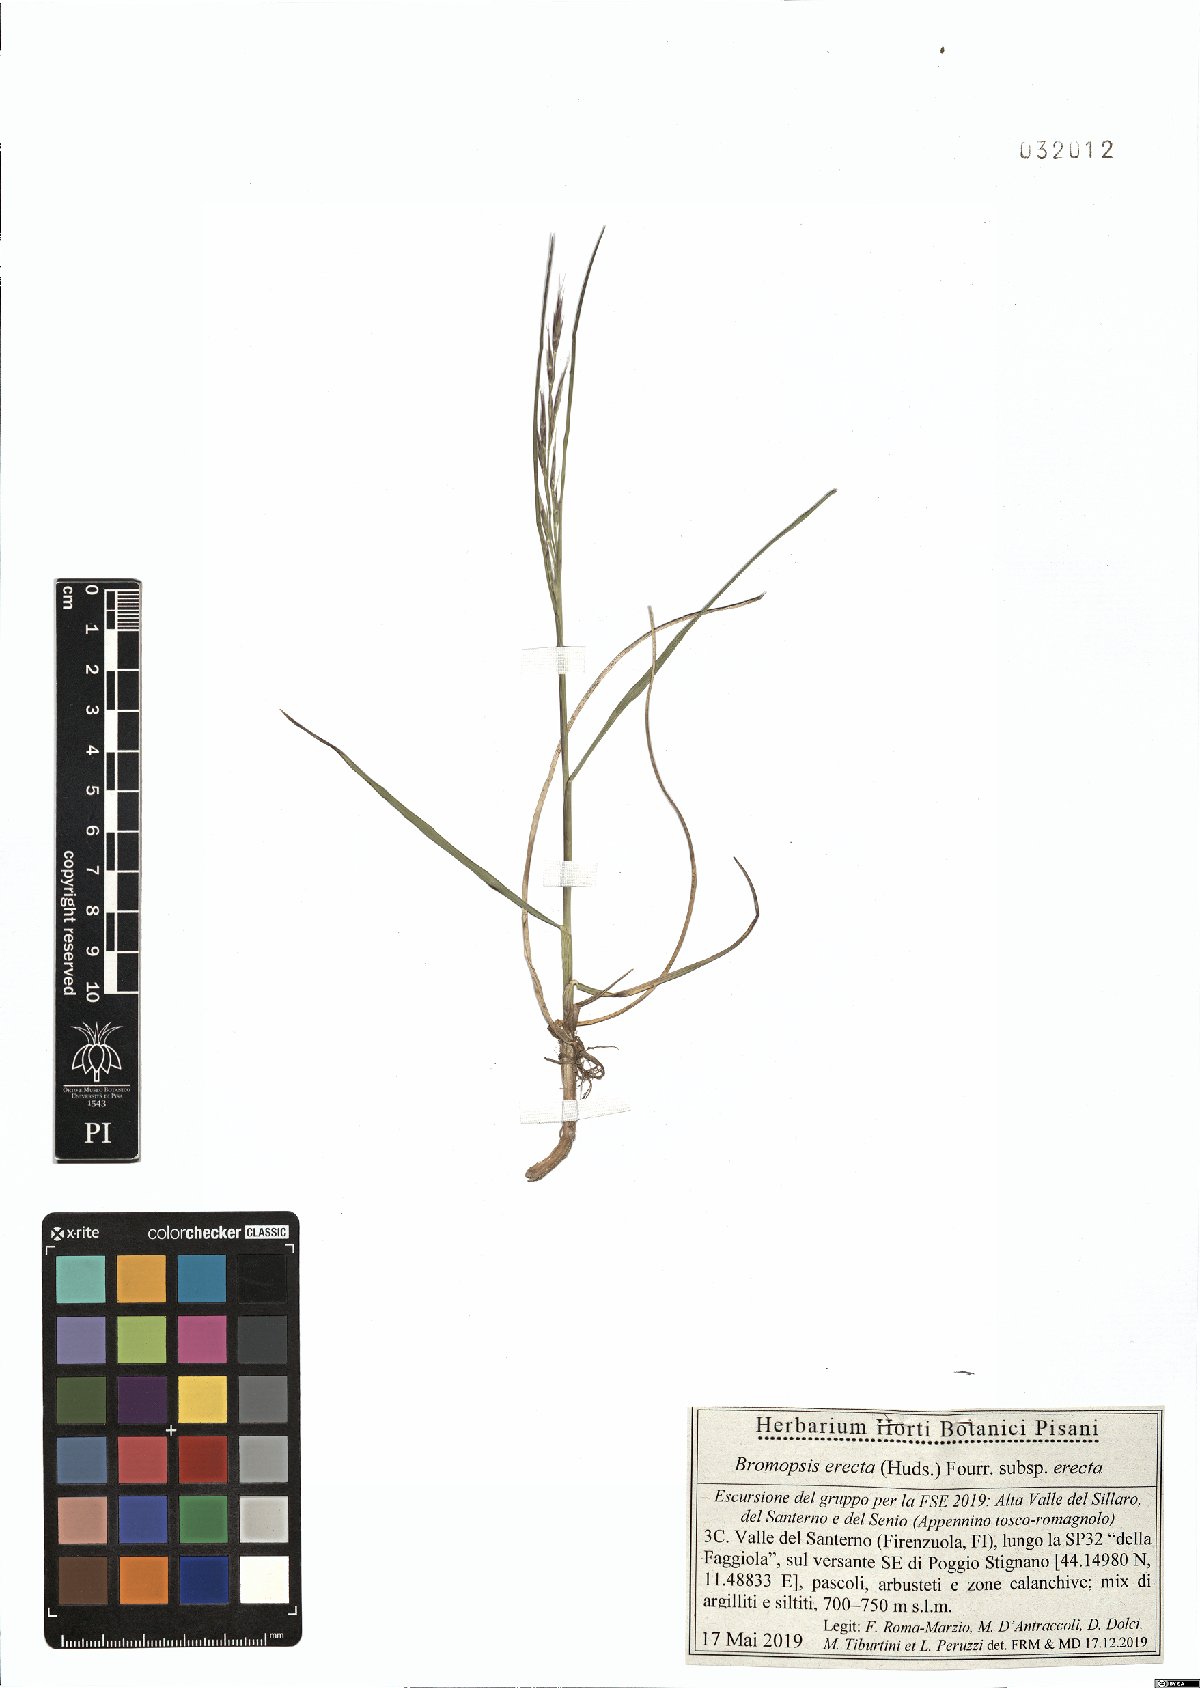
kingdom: Plantae
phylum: Tracheophyta
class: Liliopsida
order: Poales
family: Poaceae
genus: Bromus
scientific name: Bromus erectus
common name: Erect brome
